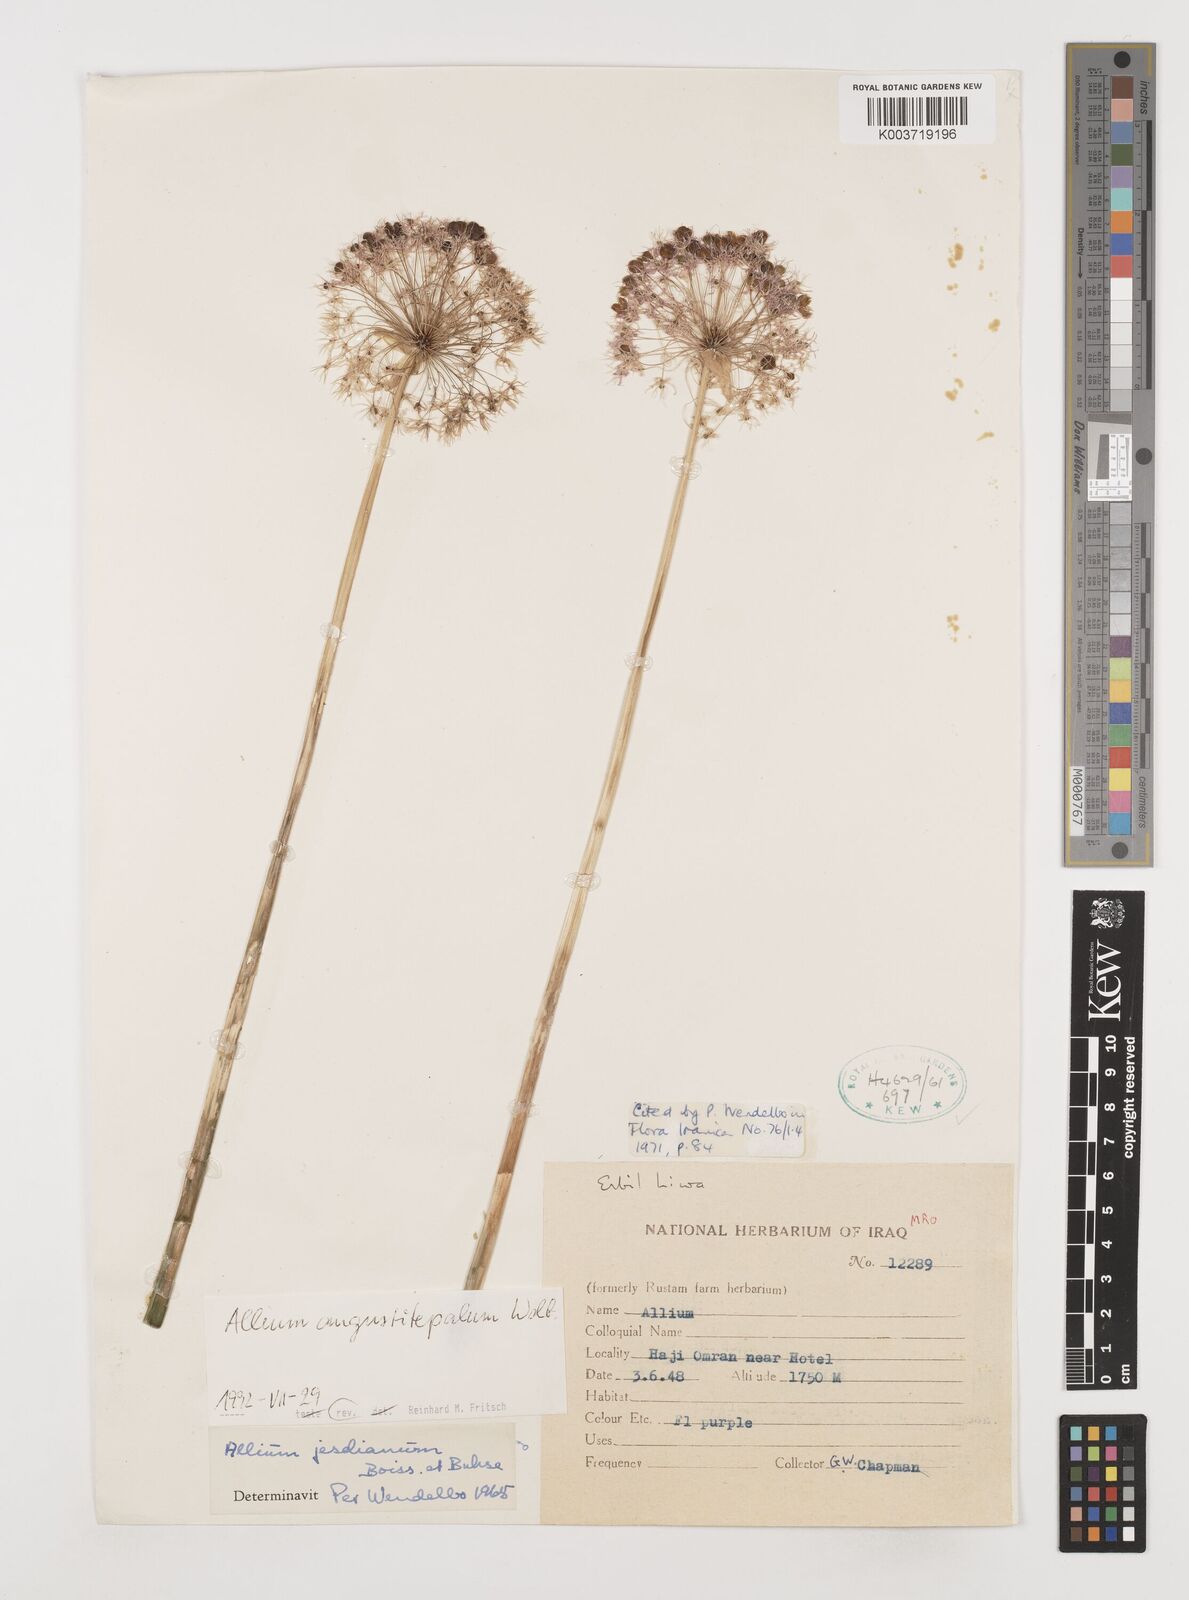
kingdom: Plantae
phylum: Tracheophyta
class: Liliopsida
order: Asparagales
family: Amaryllidaceae
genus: Allium
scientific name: Allium jesdianum
